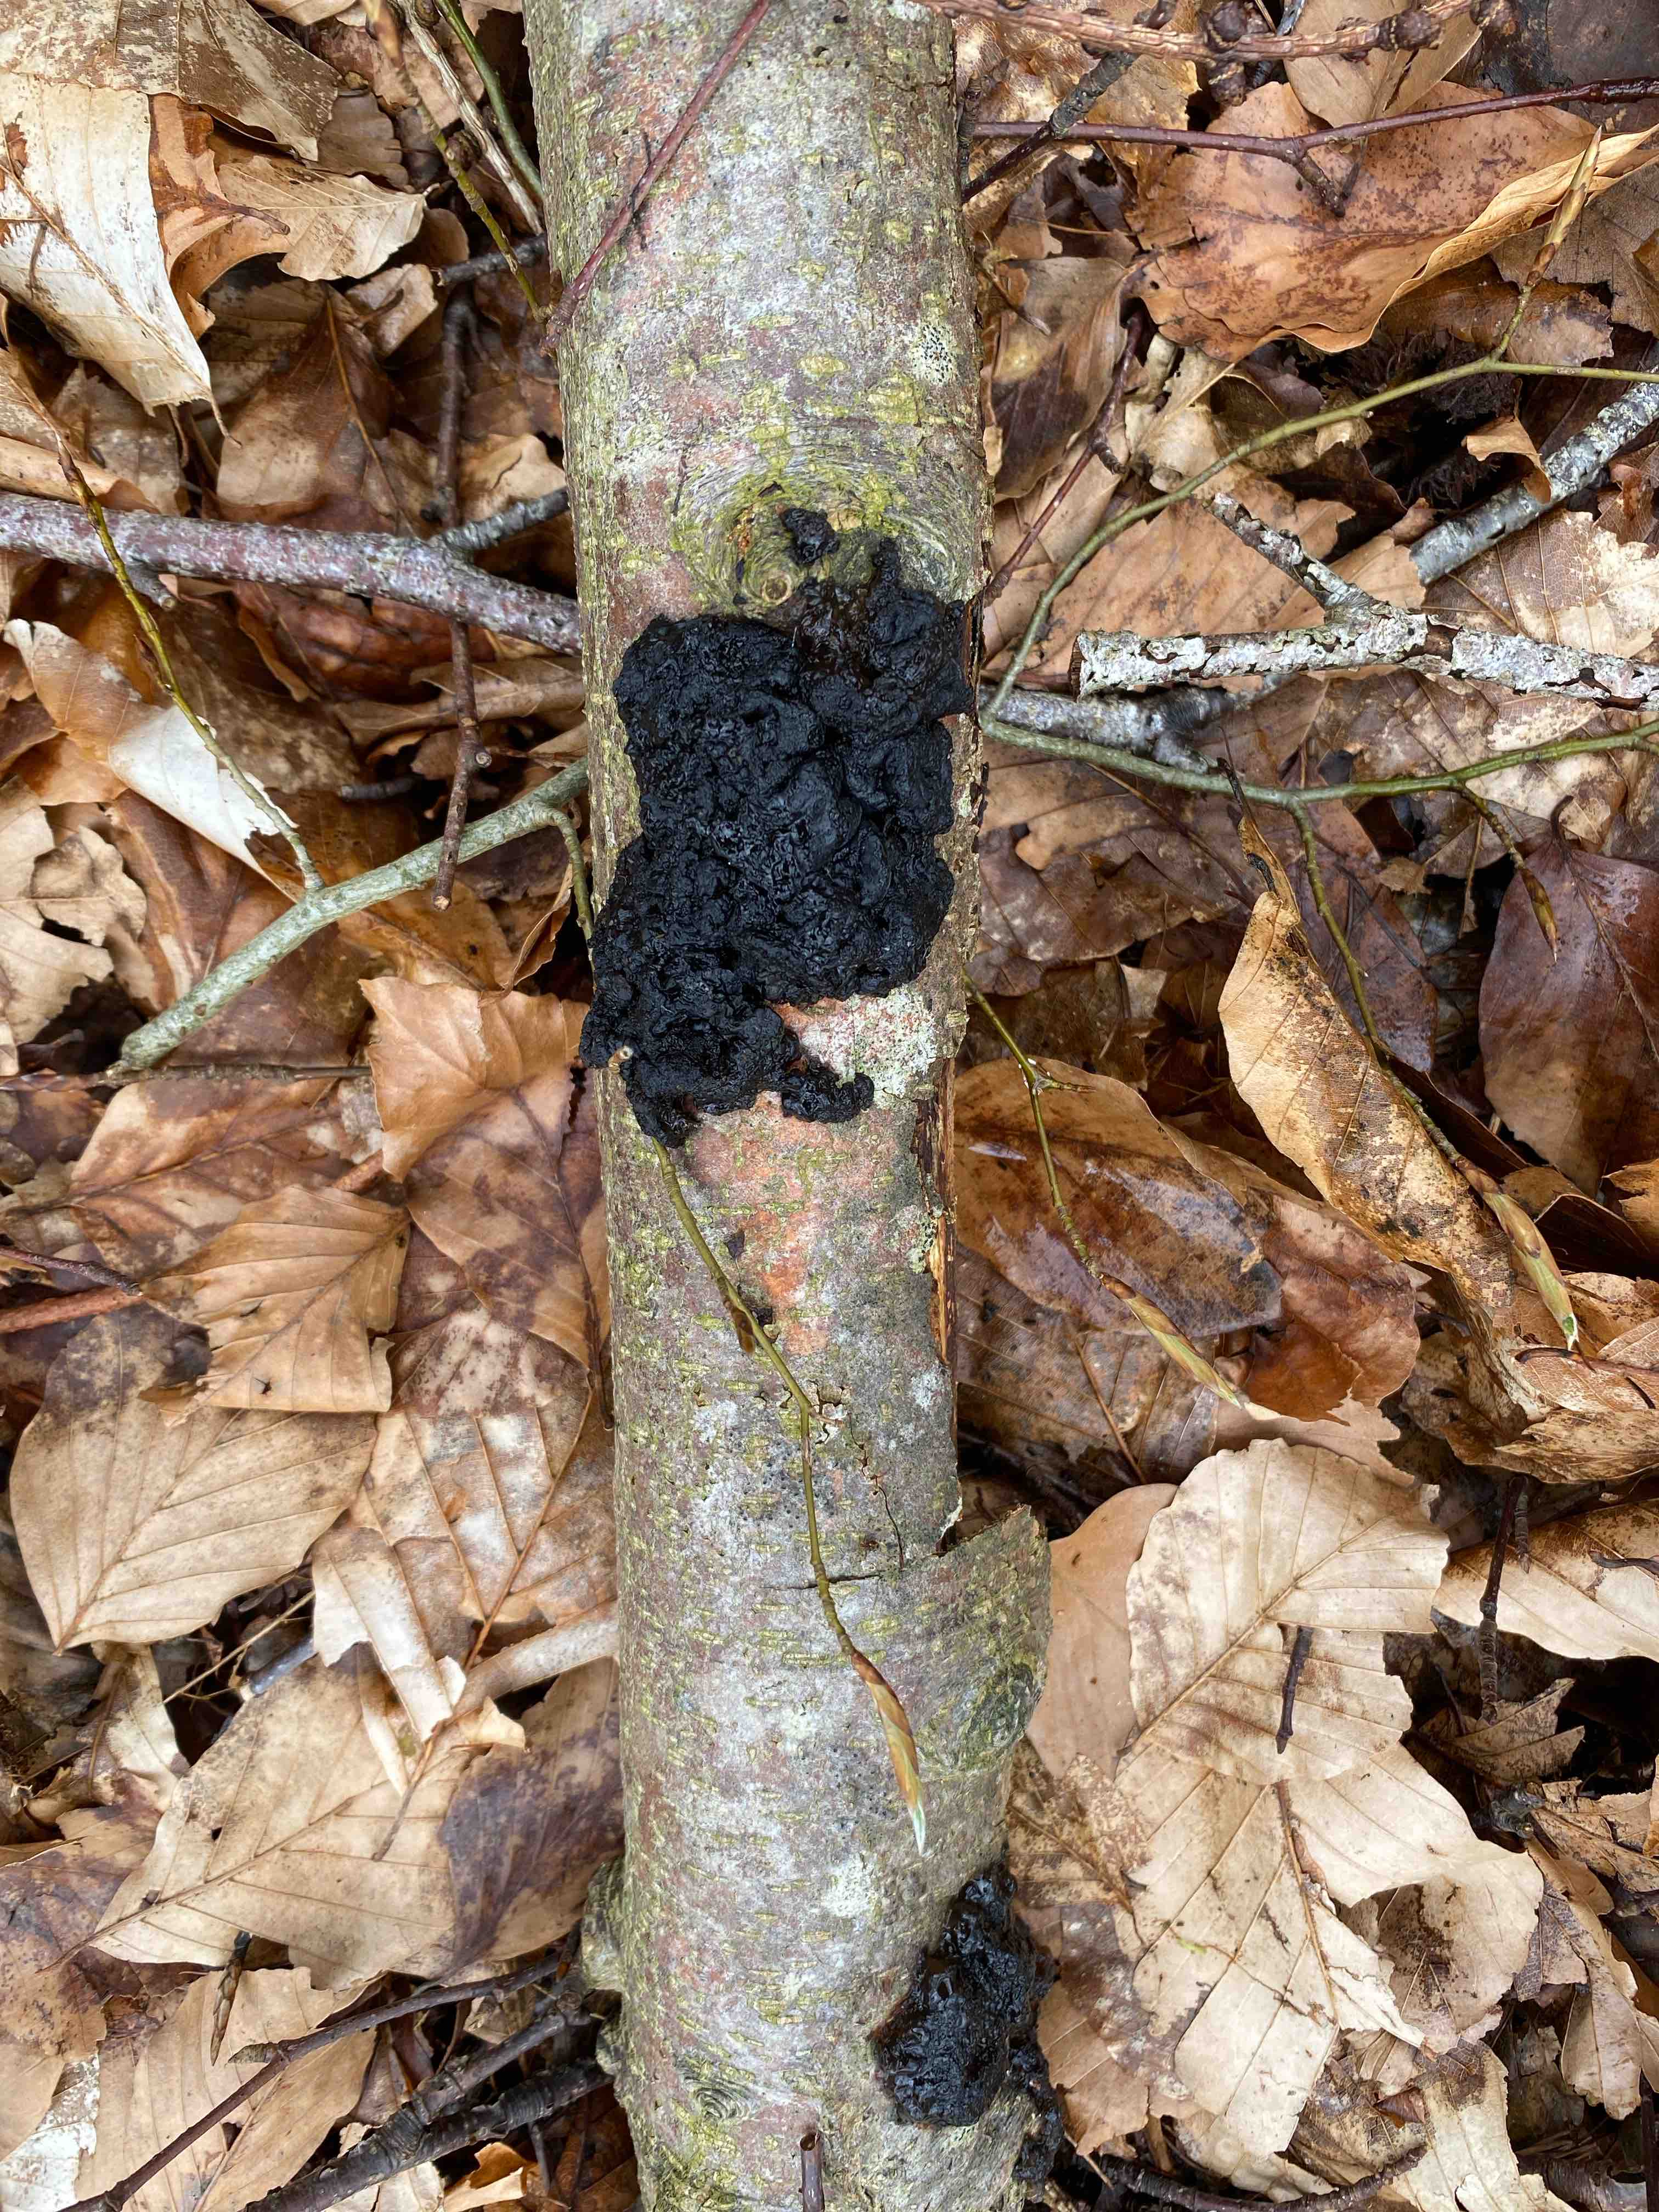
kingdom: Fungi
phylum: Basidiomycota
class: Agaricomycetes
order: Auriculariales
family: Auriculariaceae
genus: Exidia
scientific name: Exidia nigricans
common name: almindelig bævretop
